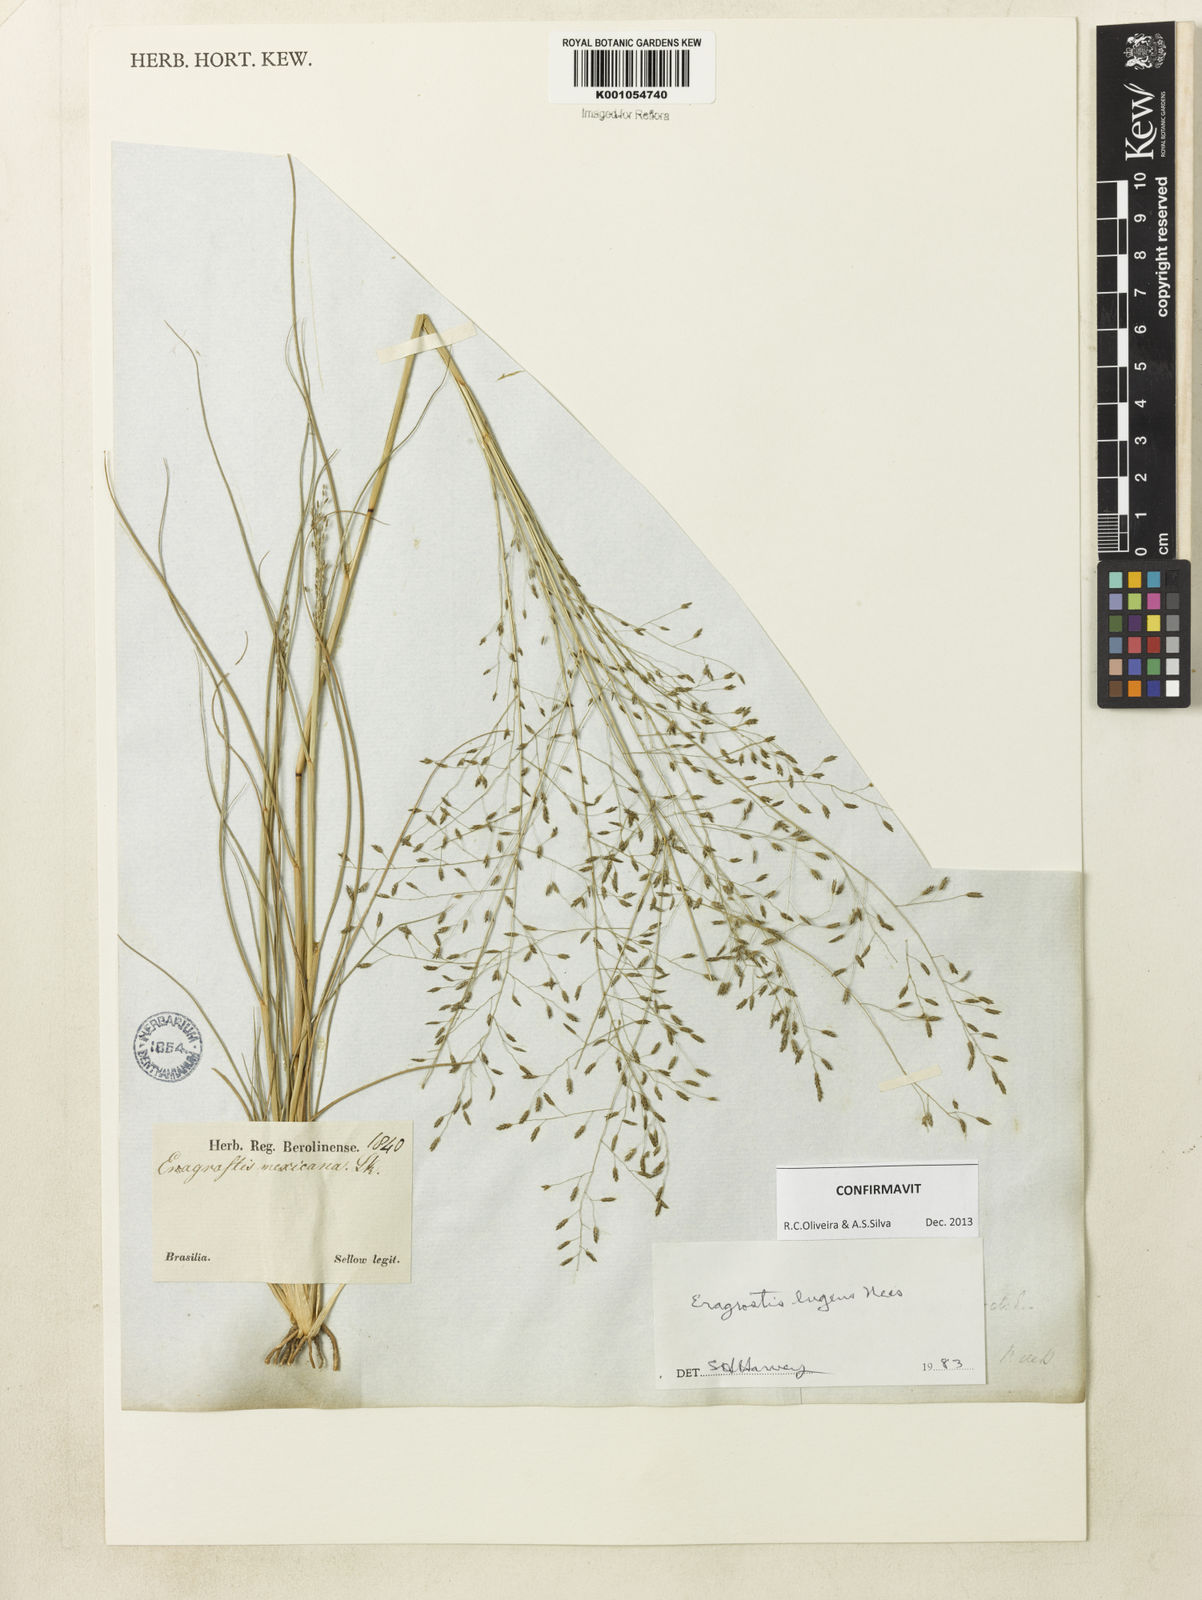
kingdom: Plantae
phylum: Tracheophyta
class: Liliopsida
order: Poales
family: Poaceae
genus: Eragrostis
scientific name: Eragrostis lugens
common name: Mourning love grass
